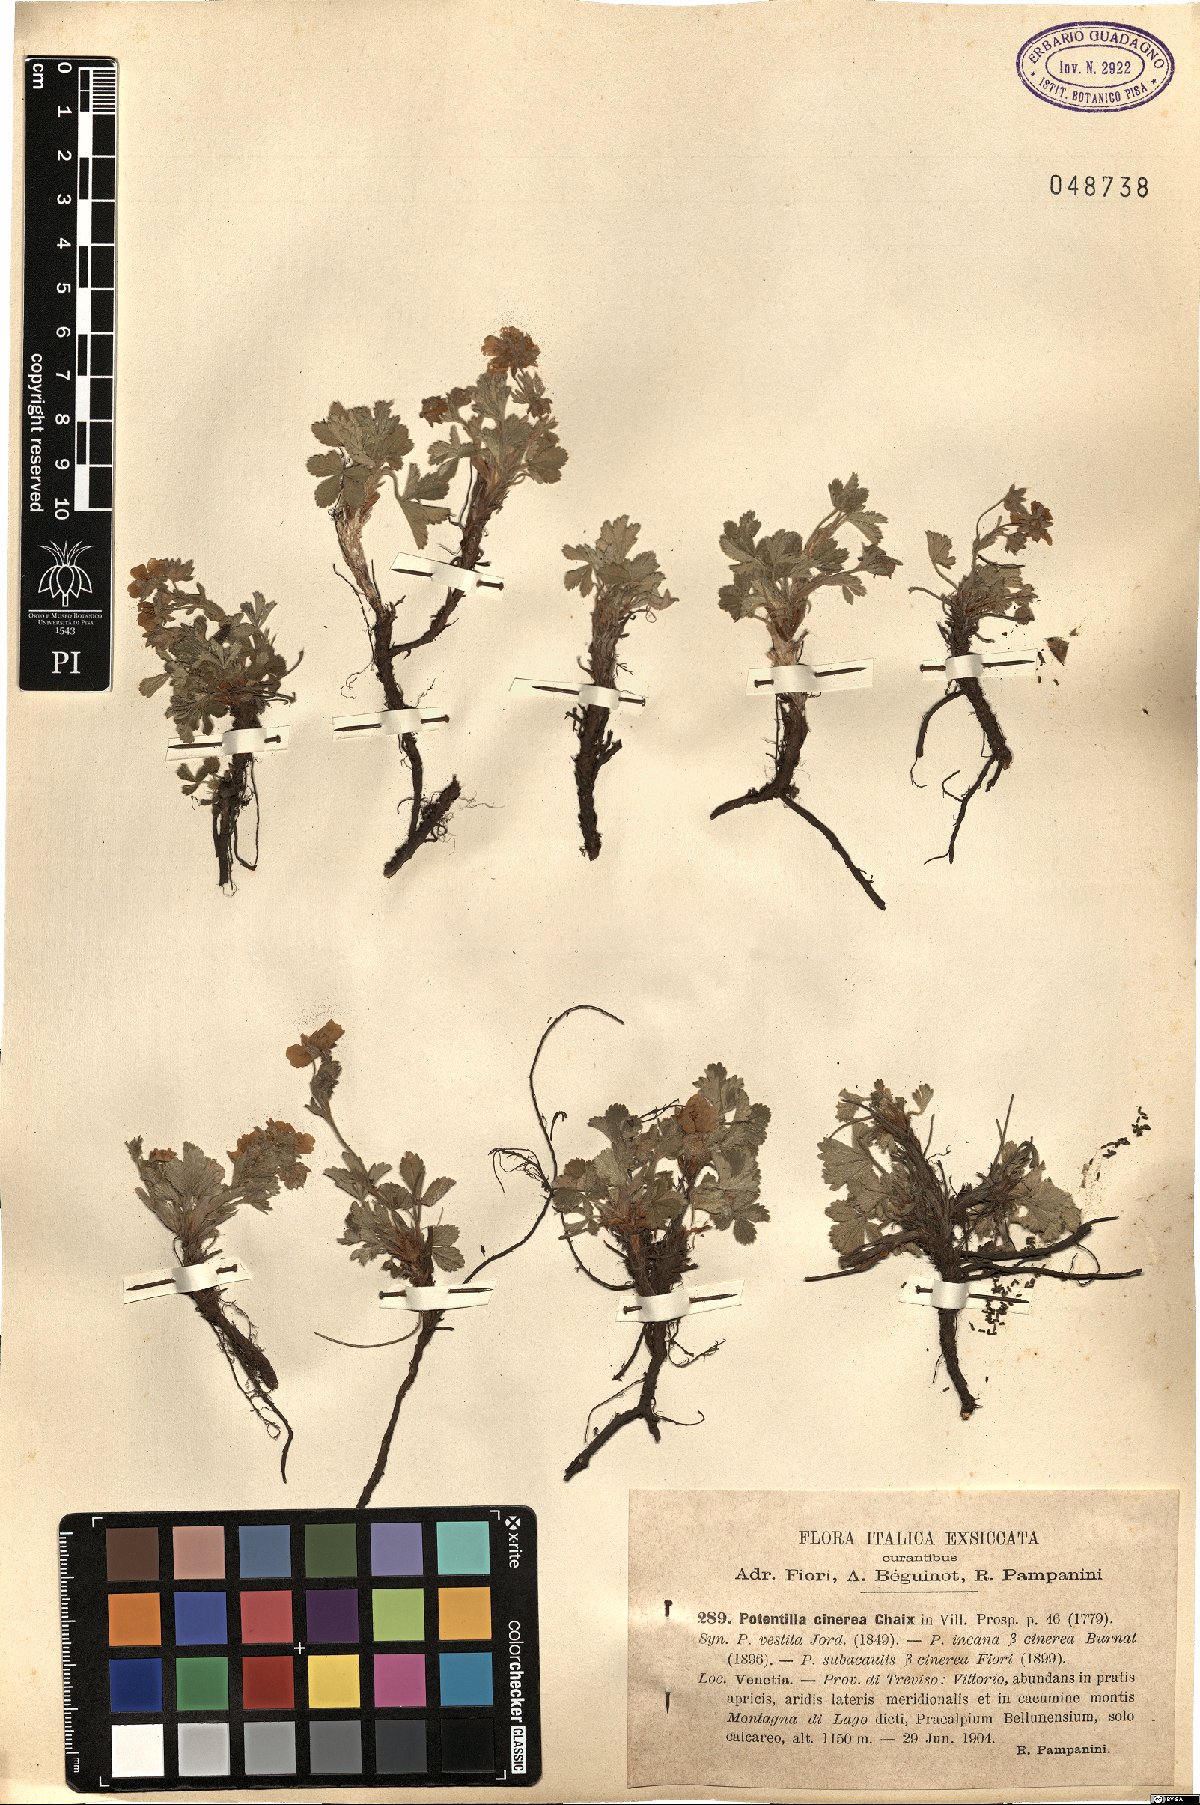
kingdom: Plantae
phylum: Tracheophyta
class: Magnoliopsida
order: Rosales
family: Rosaceae
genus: Potentilla
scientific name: Potentilla cinerea
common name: Ashy cinquefoil
